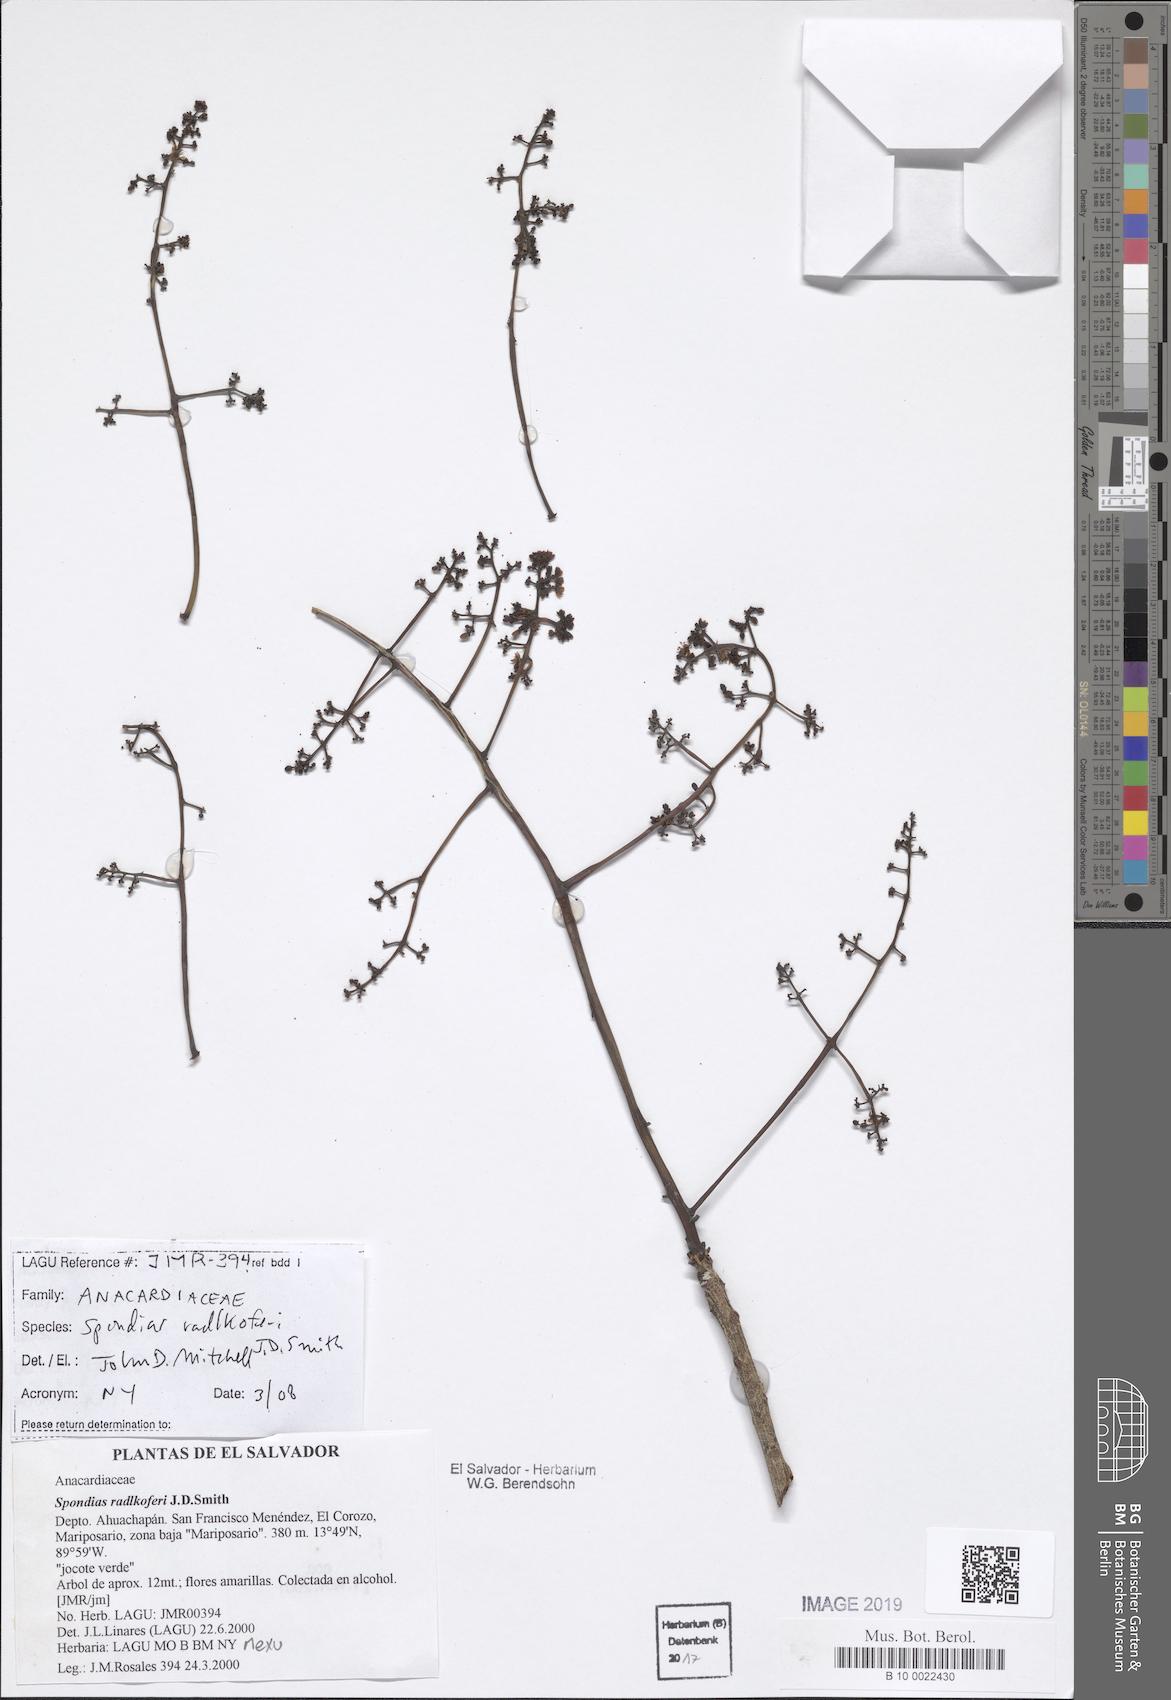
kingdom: Plantae
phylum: Tracheophyta
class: Magnoliopsida
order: Sapindales
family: Anacardiaceae
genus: Spondias
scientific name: Spondias radlkoferi
